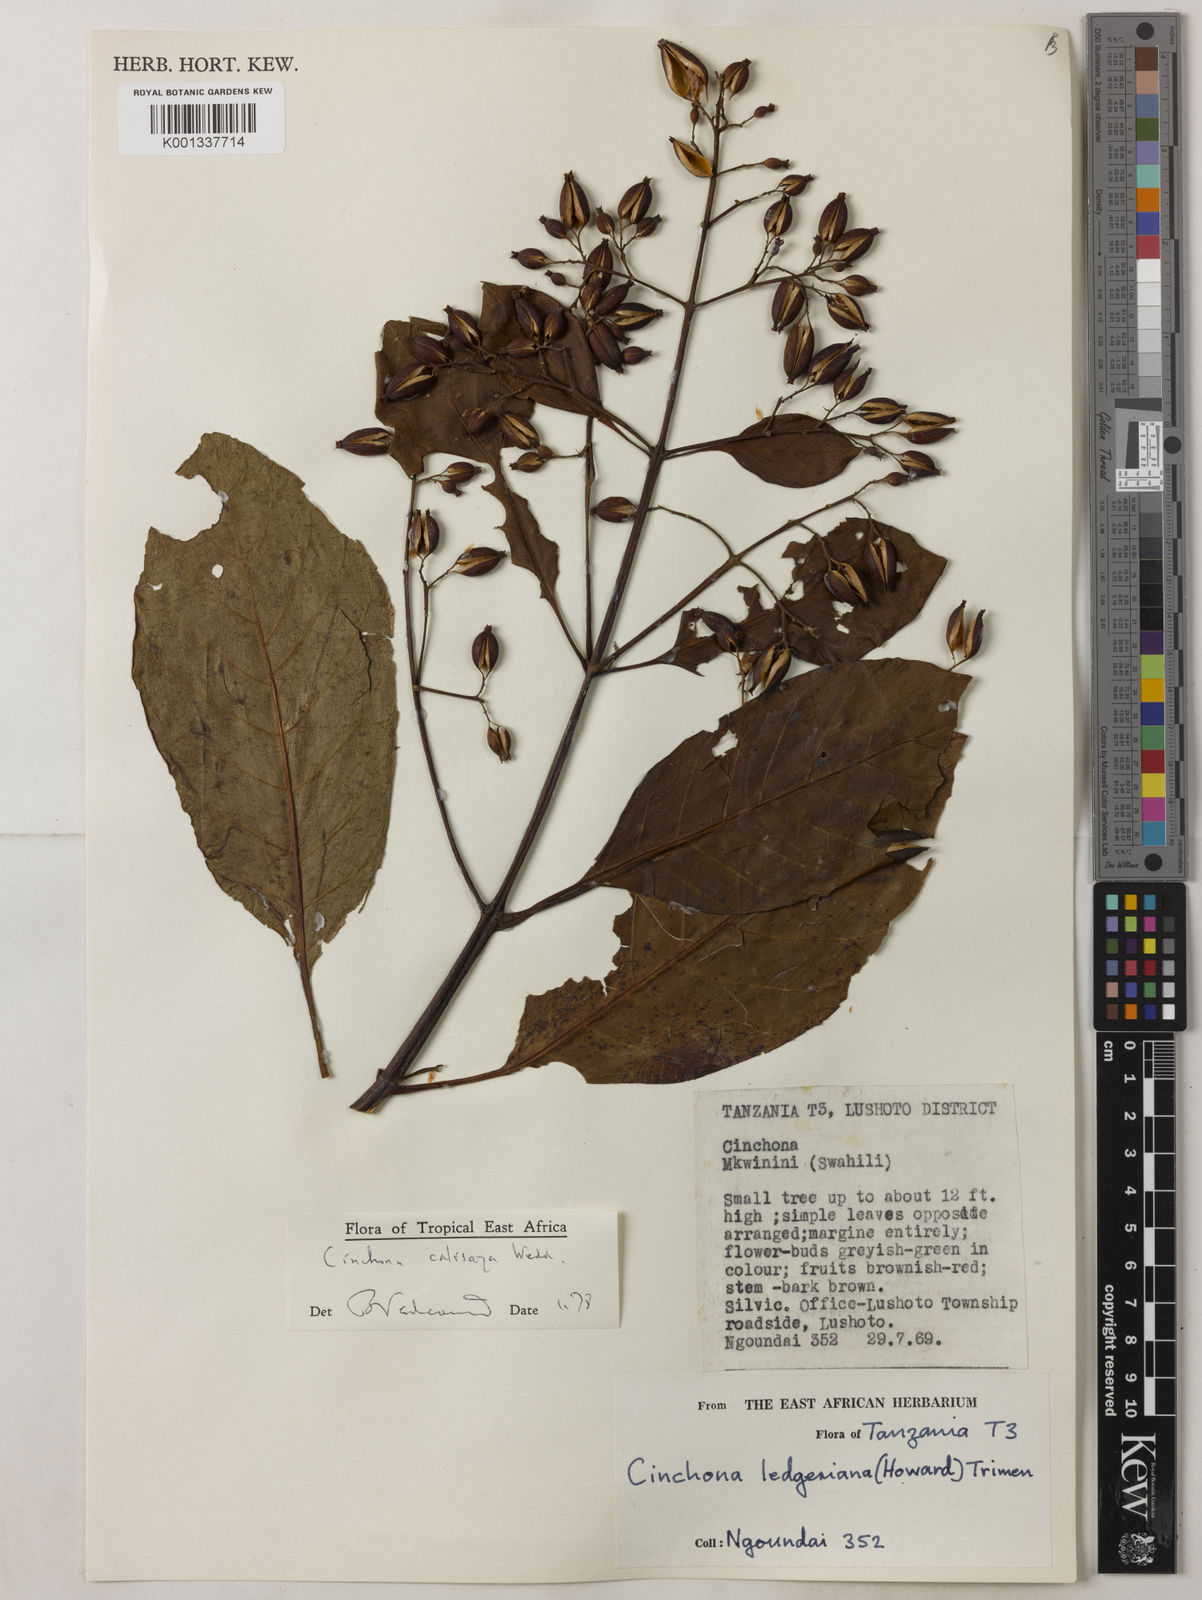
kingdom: Plantae
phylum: Tracheophyta
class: Magnoliopsida
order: Gentianales
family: Rubiaceae
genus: Cinchona
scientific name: Cinchona calisaya
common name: Ledgerbark
